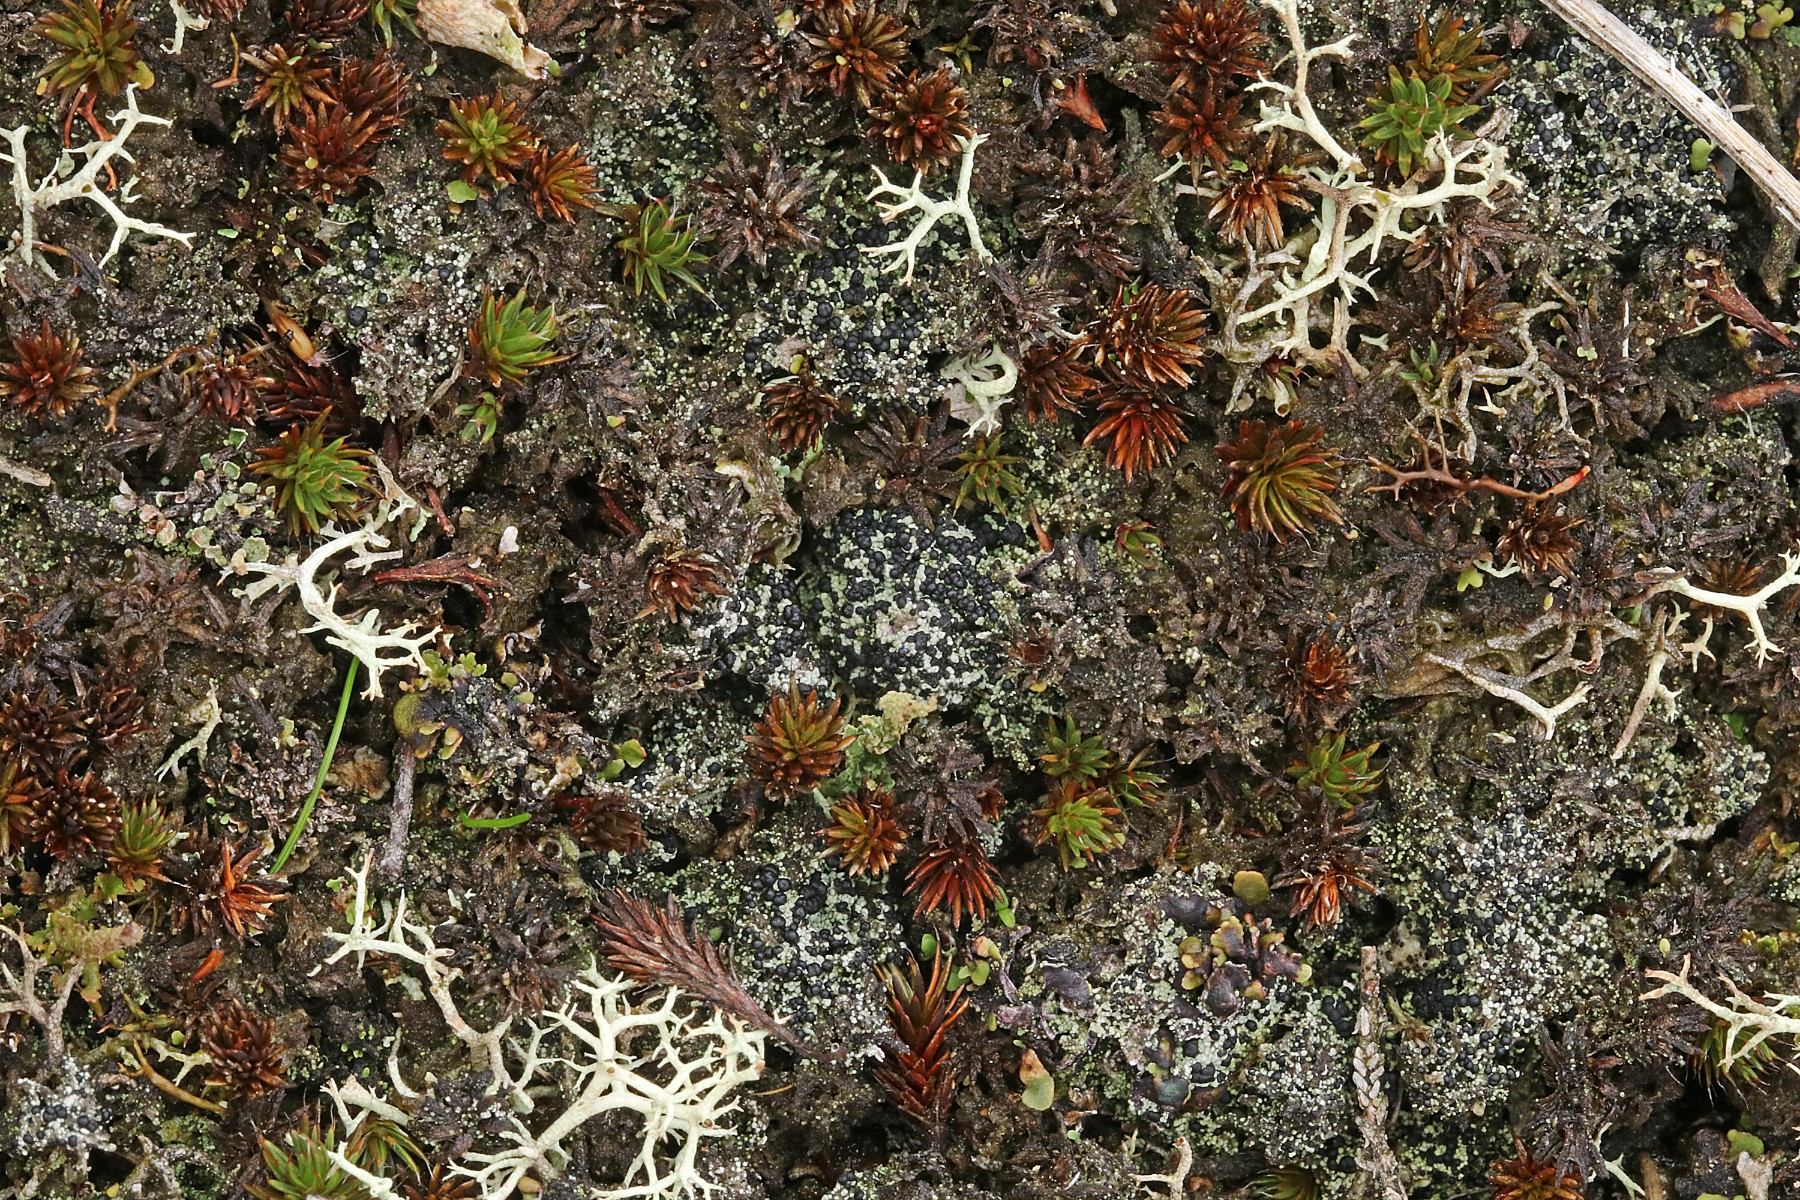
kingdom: Fungi
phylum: Ascomycota
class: Lecanoromycetes
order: Lecanorales
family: Byssolomataceae
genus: Micarea
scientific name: Micarea lignaria
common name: tørve-knaplav
